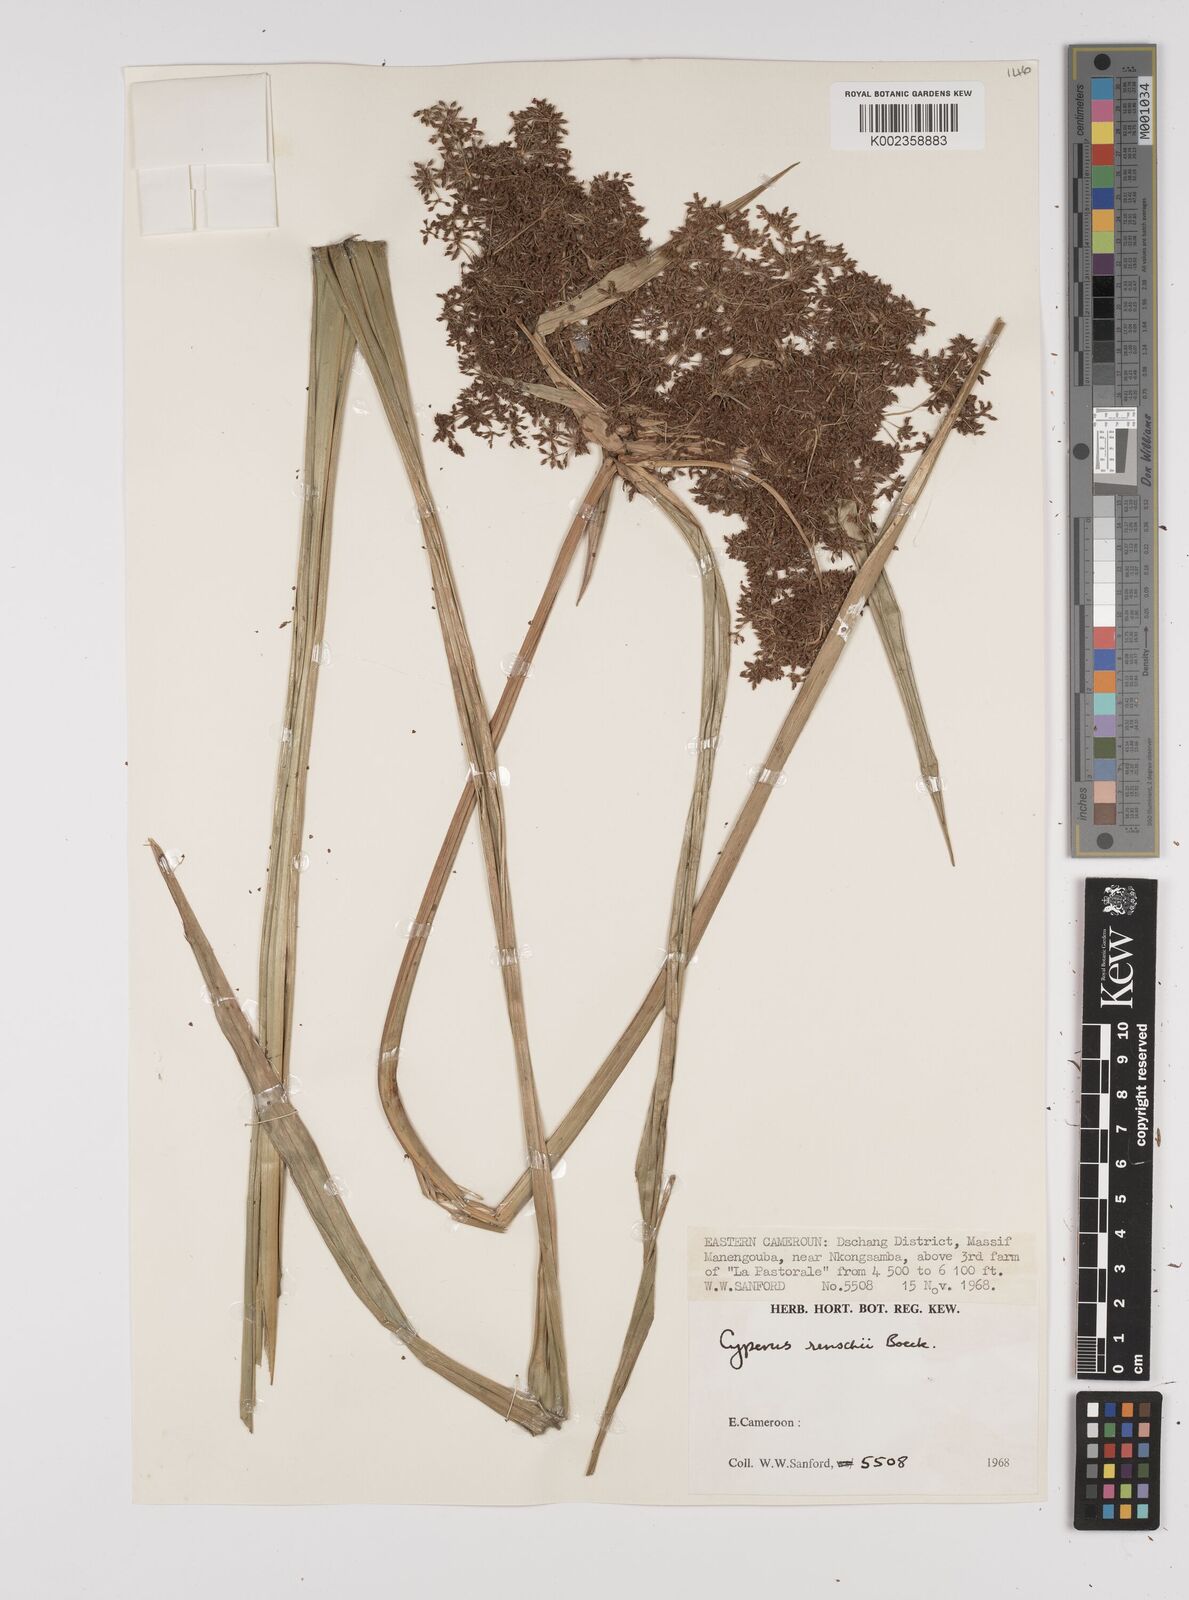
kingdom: Plantae
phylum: Tracheophyta
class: Liliopsida
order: Poales
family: Cyperaceae
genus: Cyperus
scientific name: Cyperus renschii
